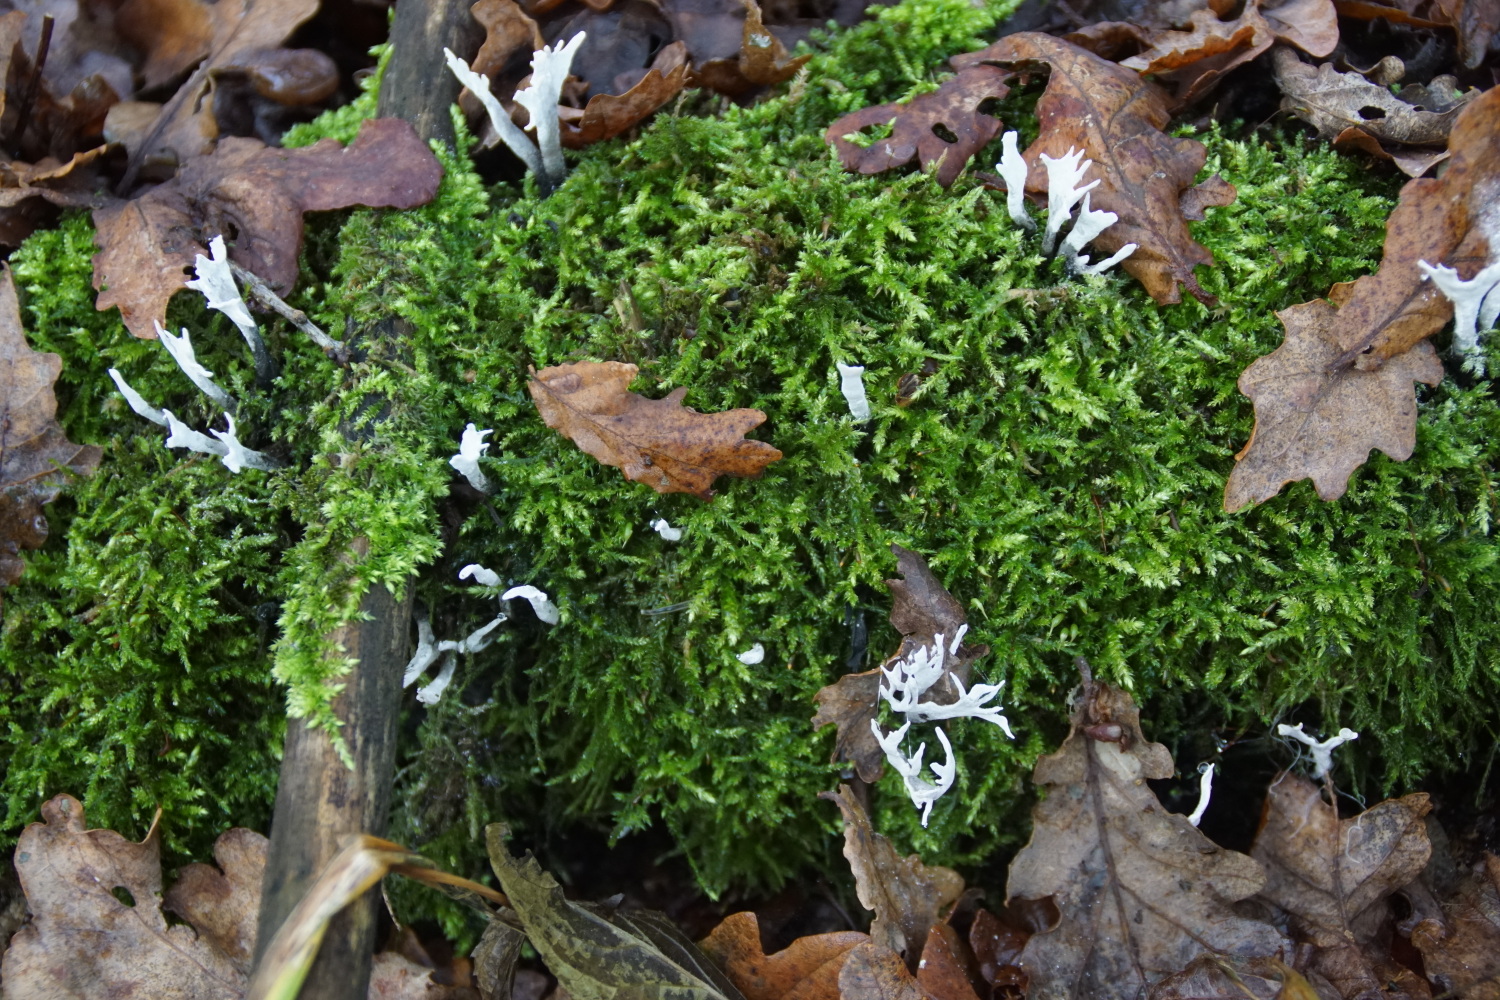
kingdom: Fungi
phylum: Ascomycota
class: Sordariomycetes
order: Xylariales
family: Xylariaceae
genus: Xylaria
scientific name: Xylaria hypoxylon
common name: grenet stødsvamp
